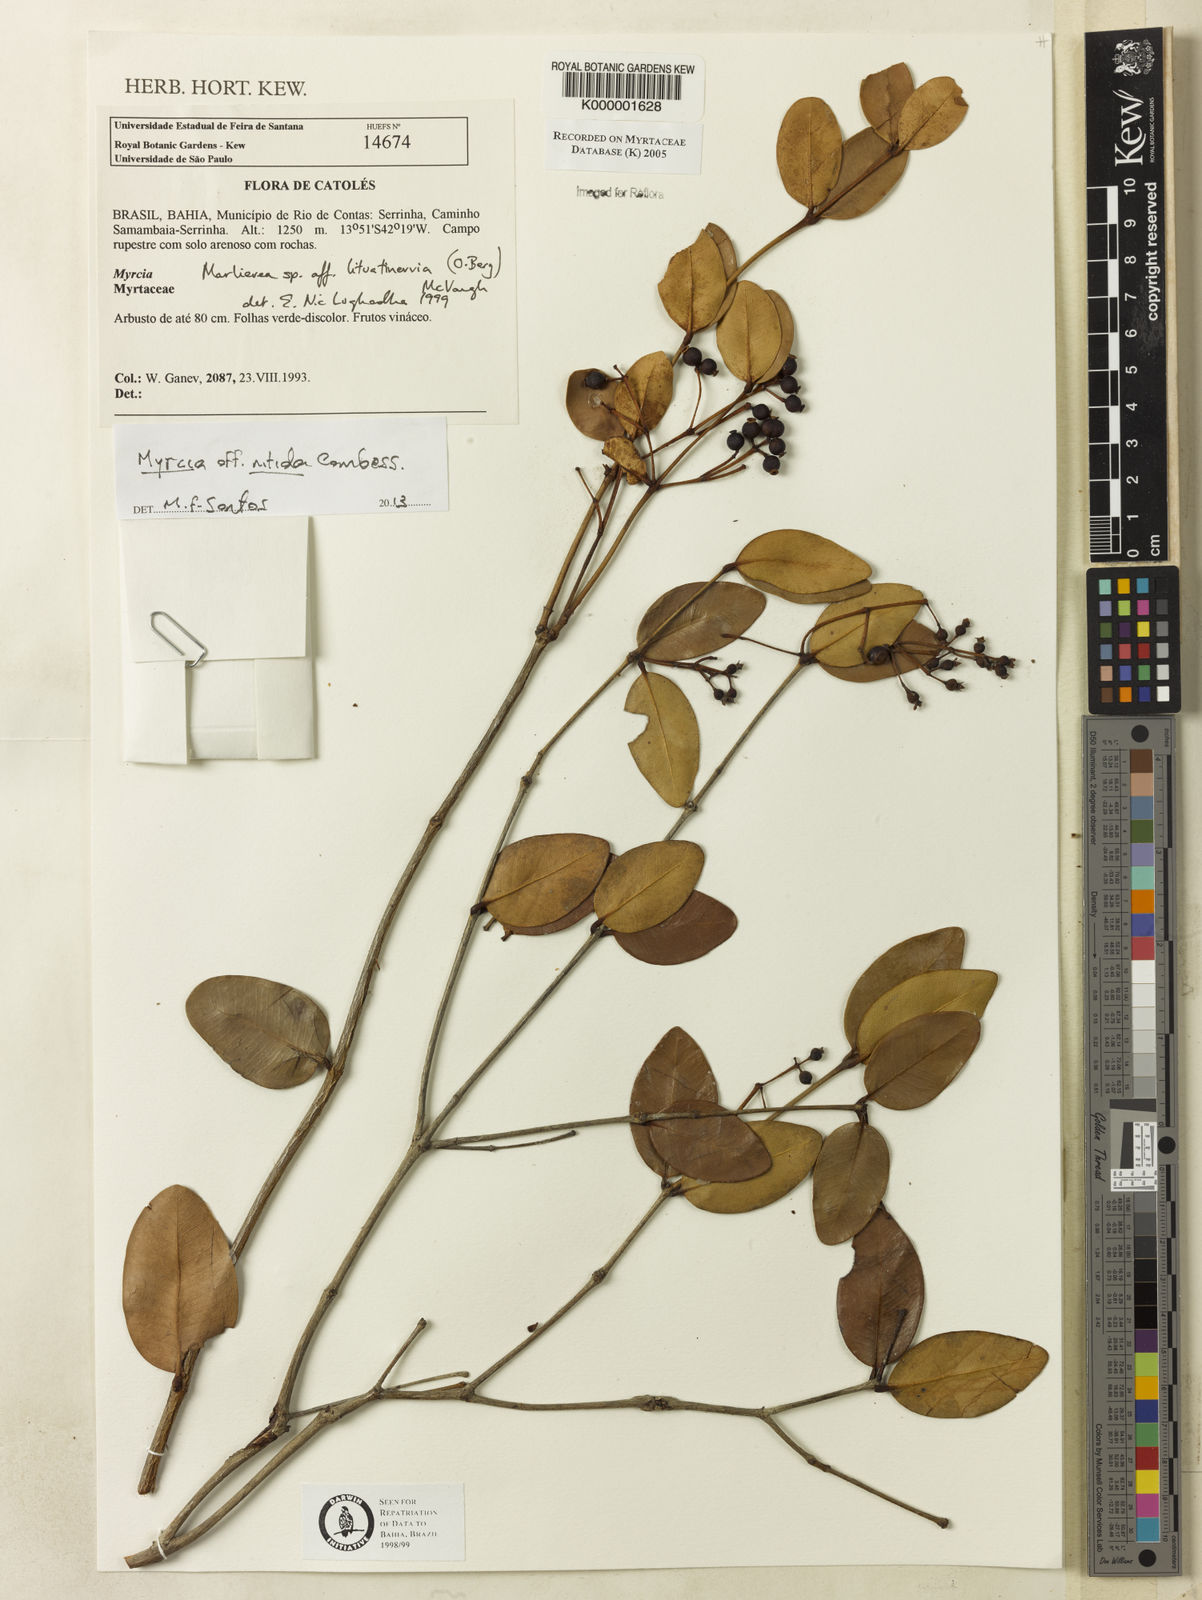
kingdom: Plantae
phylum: Tracheophyta
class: Magnoliopsida
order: Myrtales
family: Myrtaceae
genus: Myrcia
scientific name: Myrcia lituatinervia
